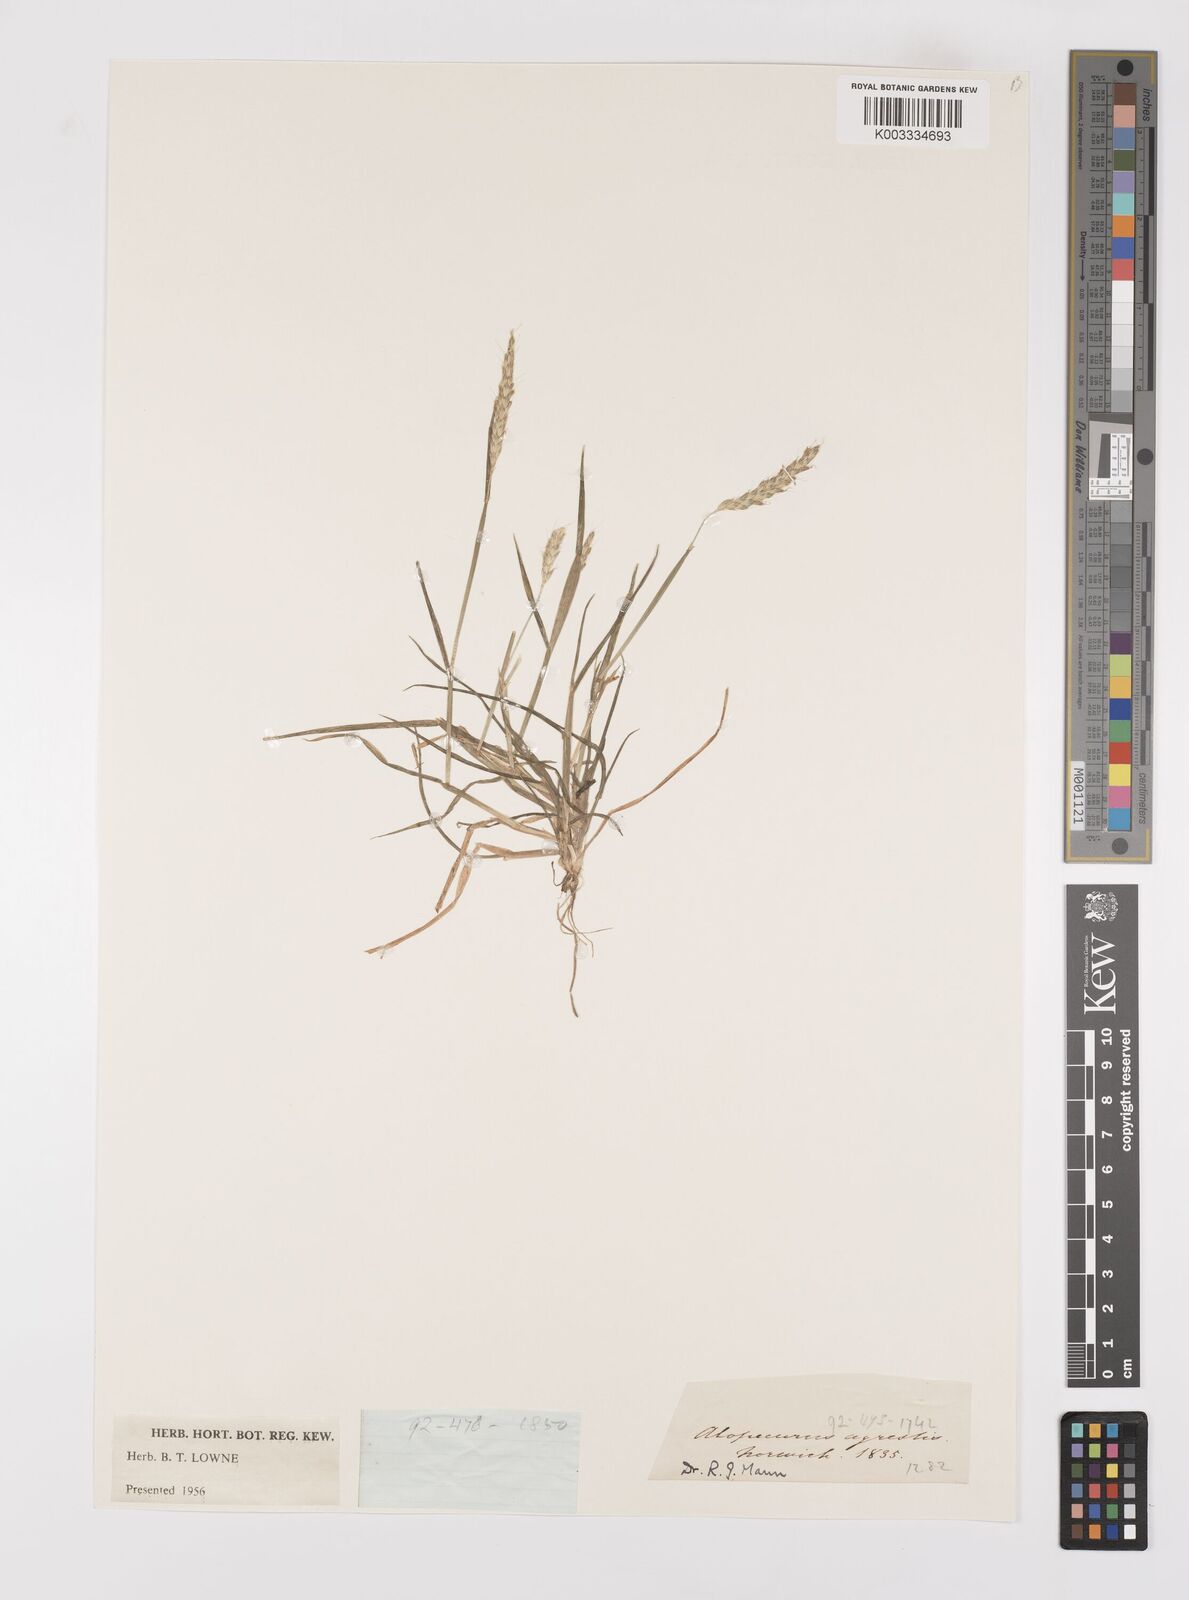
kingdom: Plantae
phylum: Tracheophyta
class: Liliopsida
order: Poales
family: Poaceae
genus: Alopecurus
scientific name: Alopecurus myosuroides
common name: Black-grass
